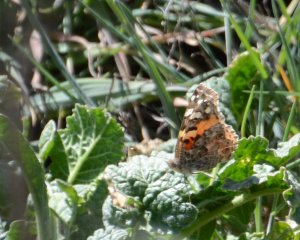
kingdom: Animalia
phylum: Arthropoda
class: Insecta
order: Lepidoptera
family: Nymphalidae
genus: Vanessa
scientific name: Vanessa cardui
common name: Painted Lady
